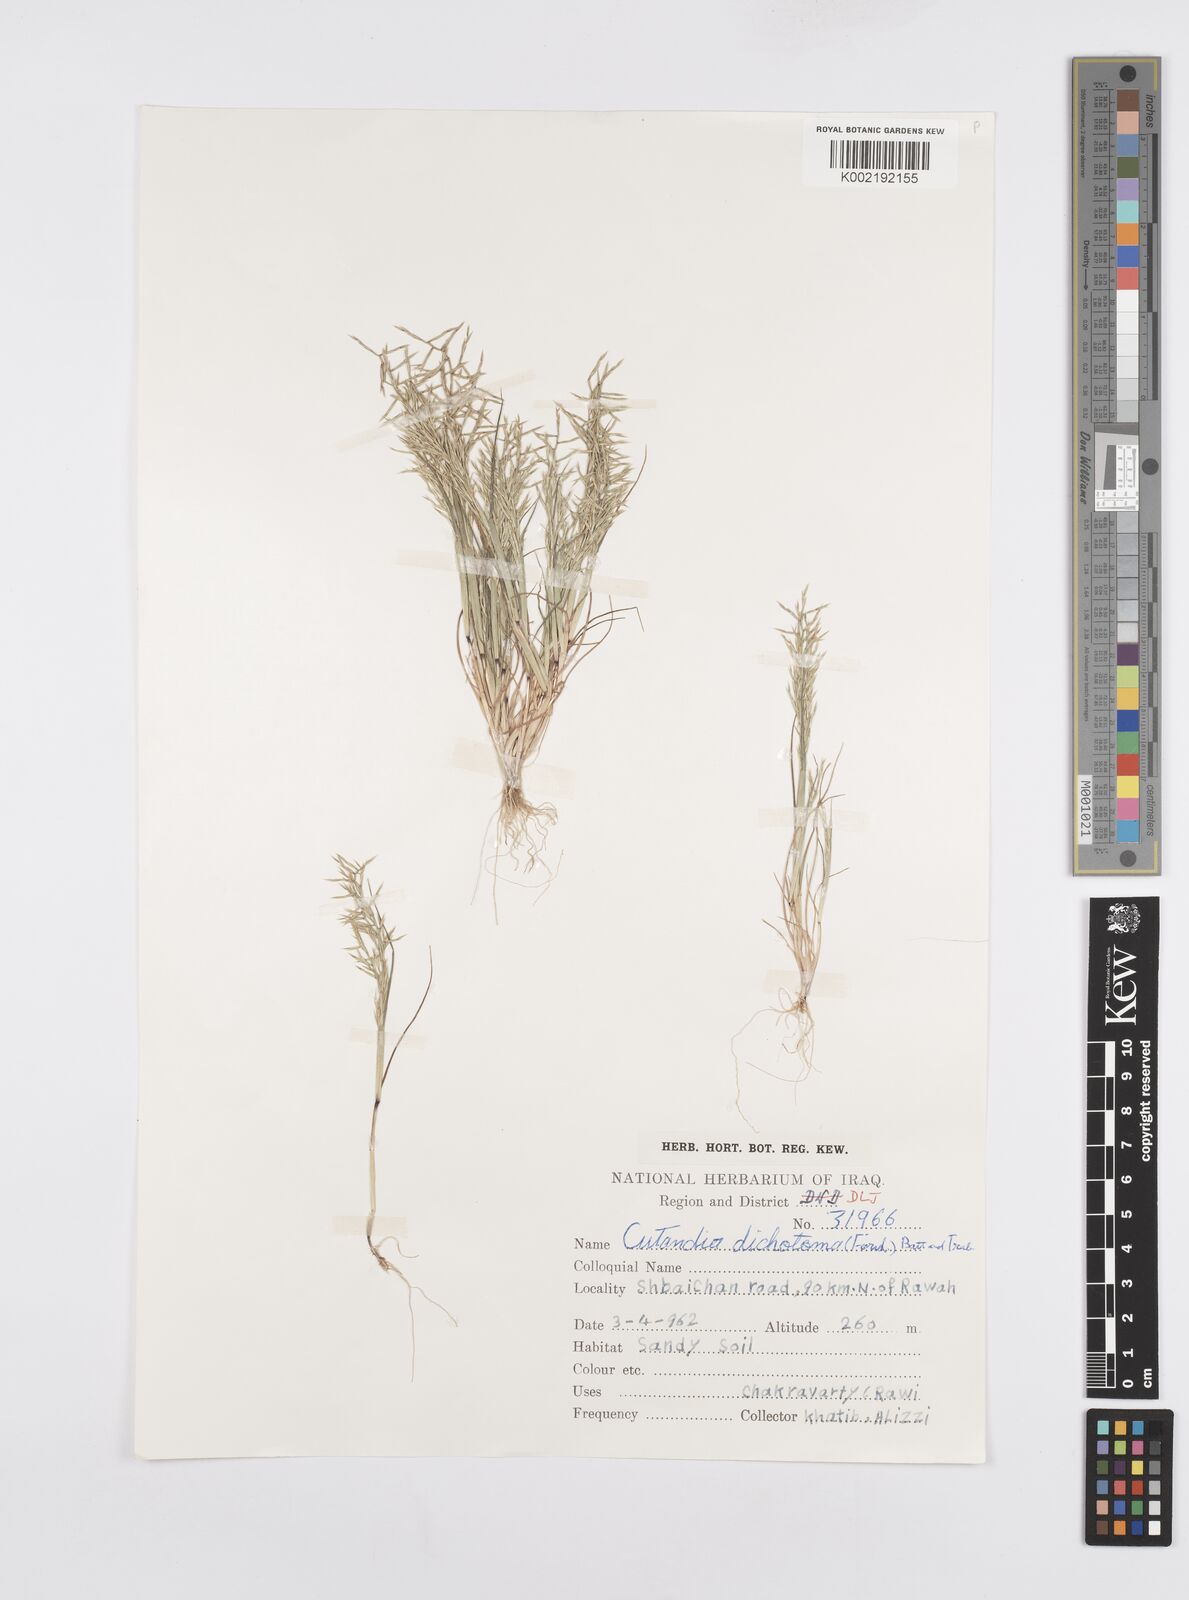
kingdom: Plantae
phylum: Tracheophyta
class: Liliopsida
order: Poales
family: Poaceae
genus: Cutandia
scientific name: Cutandia dichotoma
